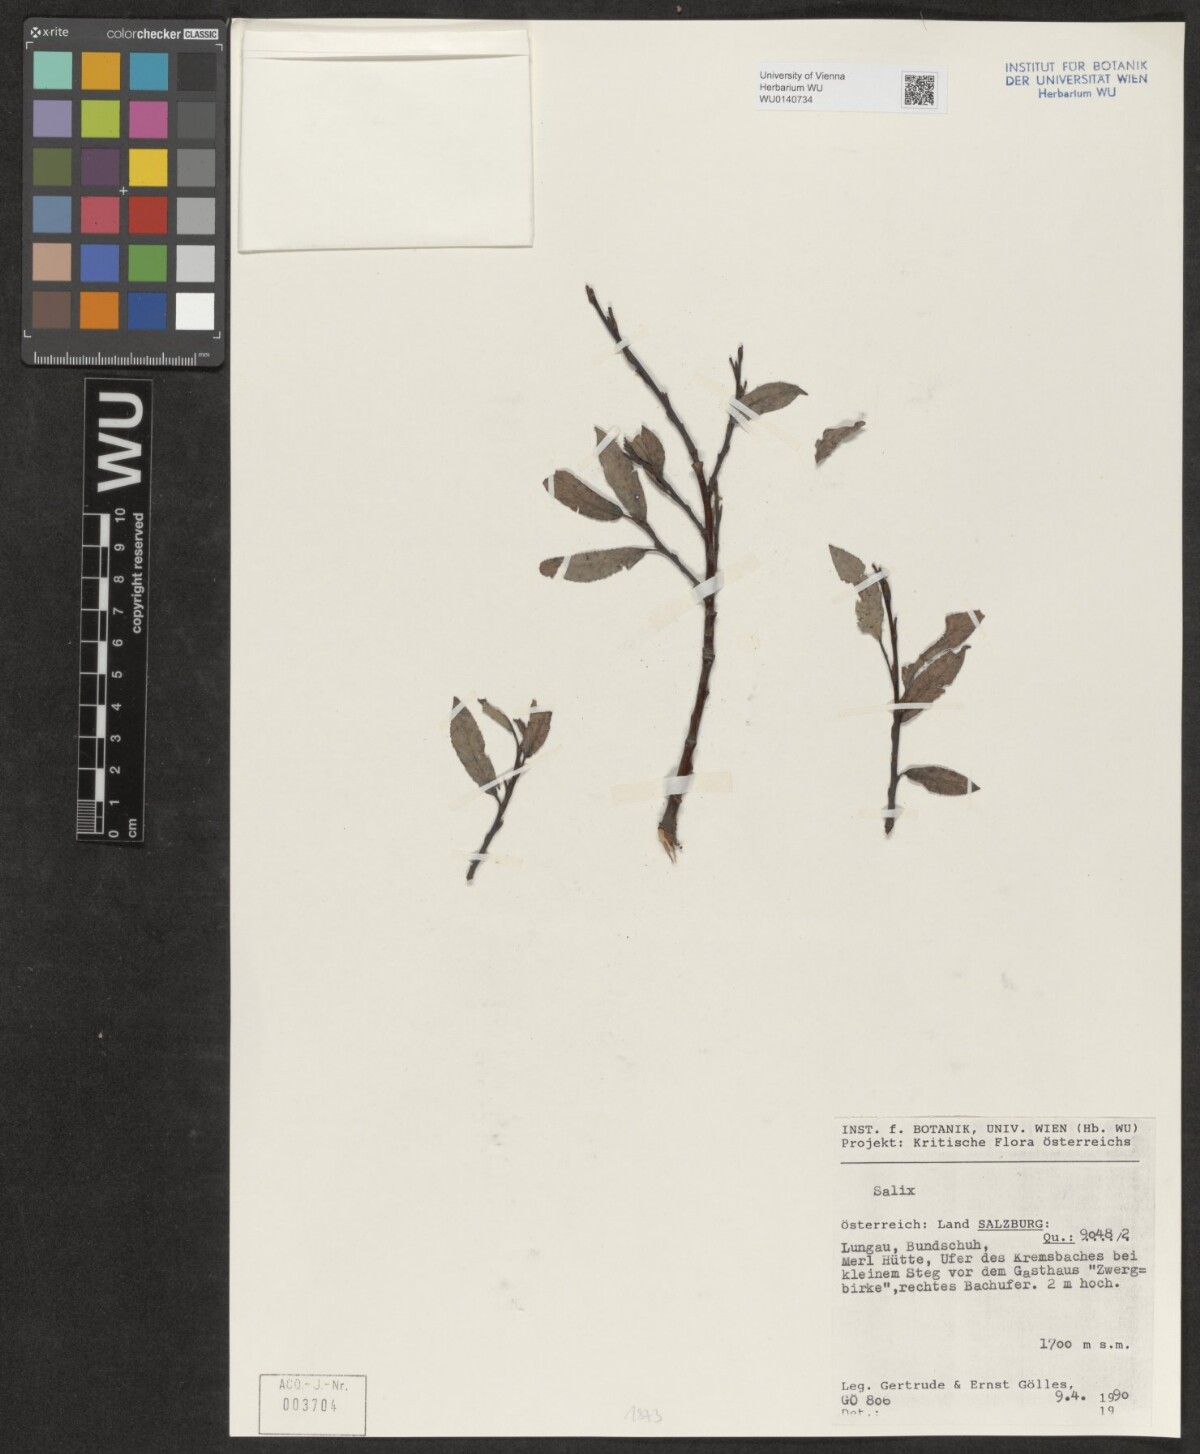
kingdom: Plantae
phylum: Tracheophyta
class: Magnoliopsida
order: Malpighiales
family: Salicaceae
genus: Salix
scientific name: Salix
